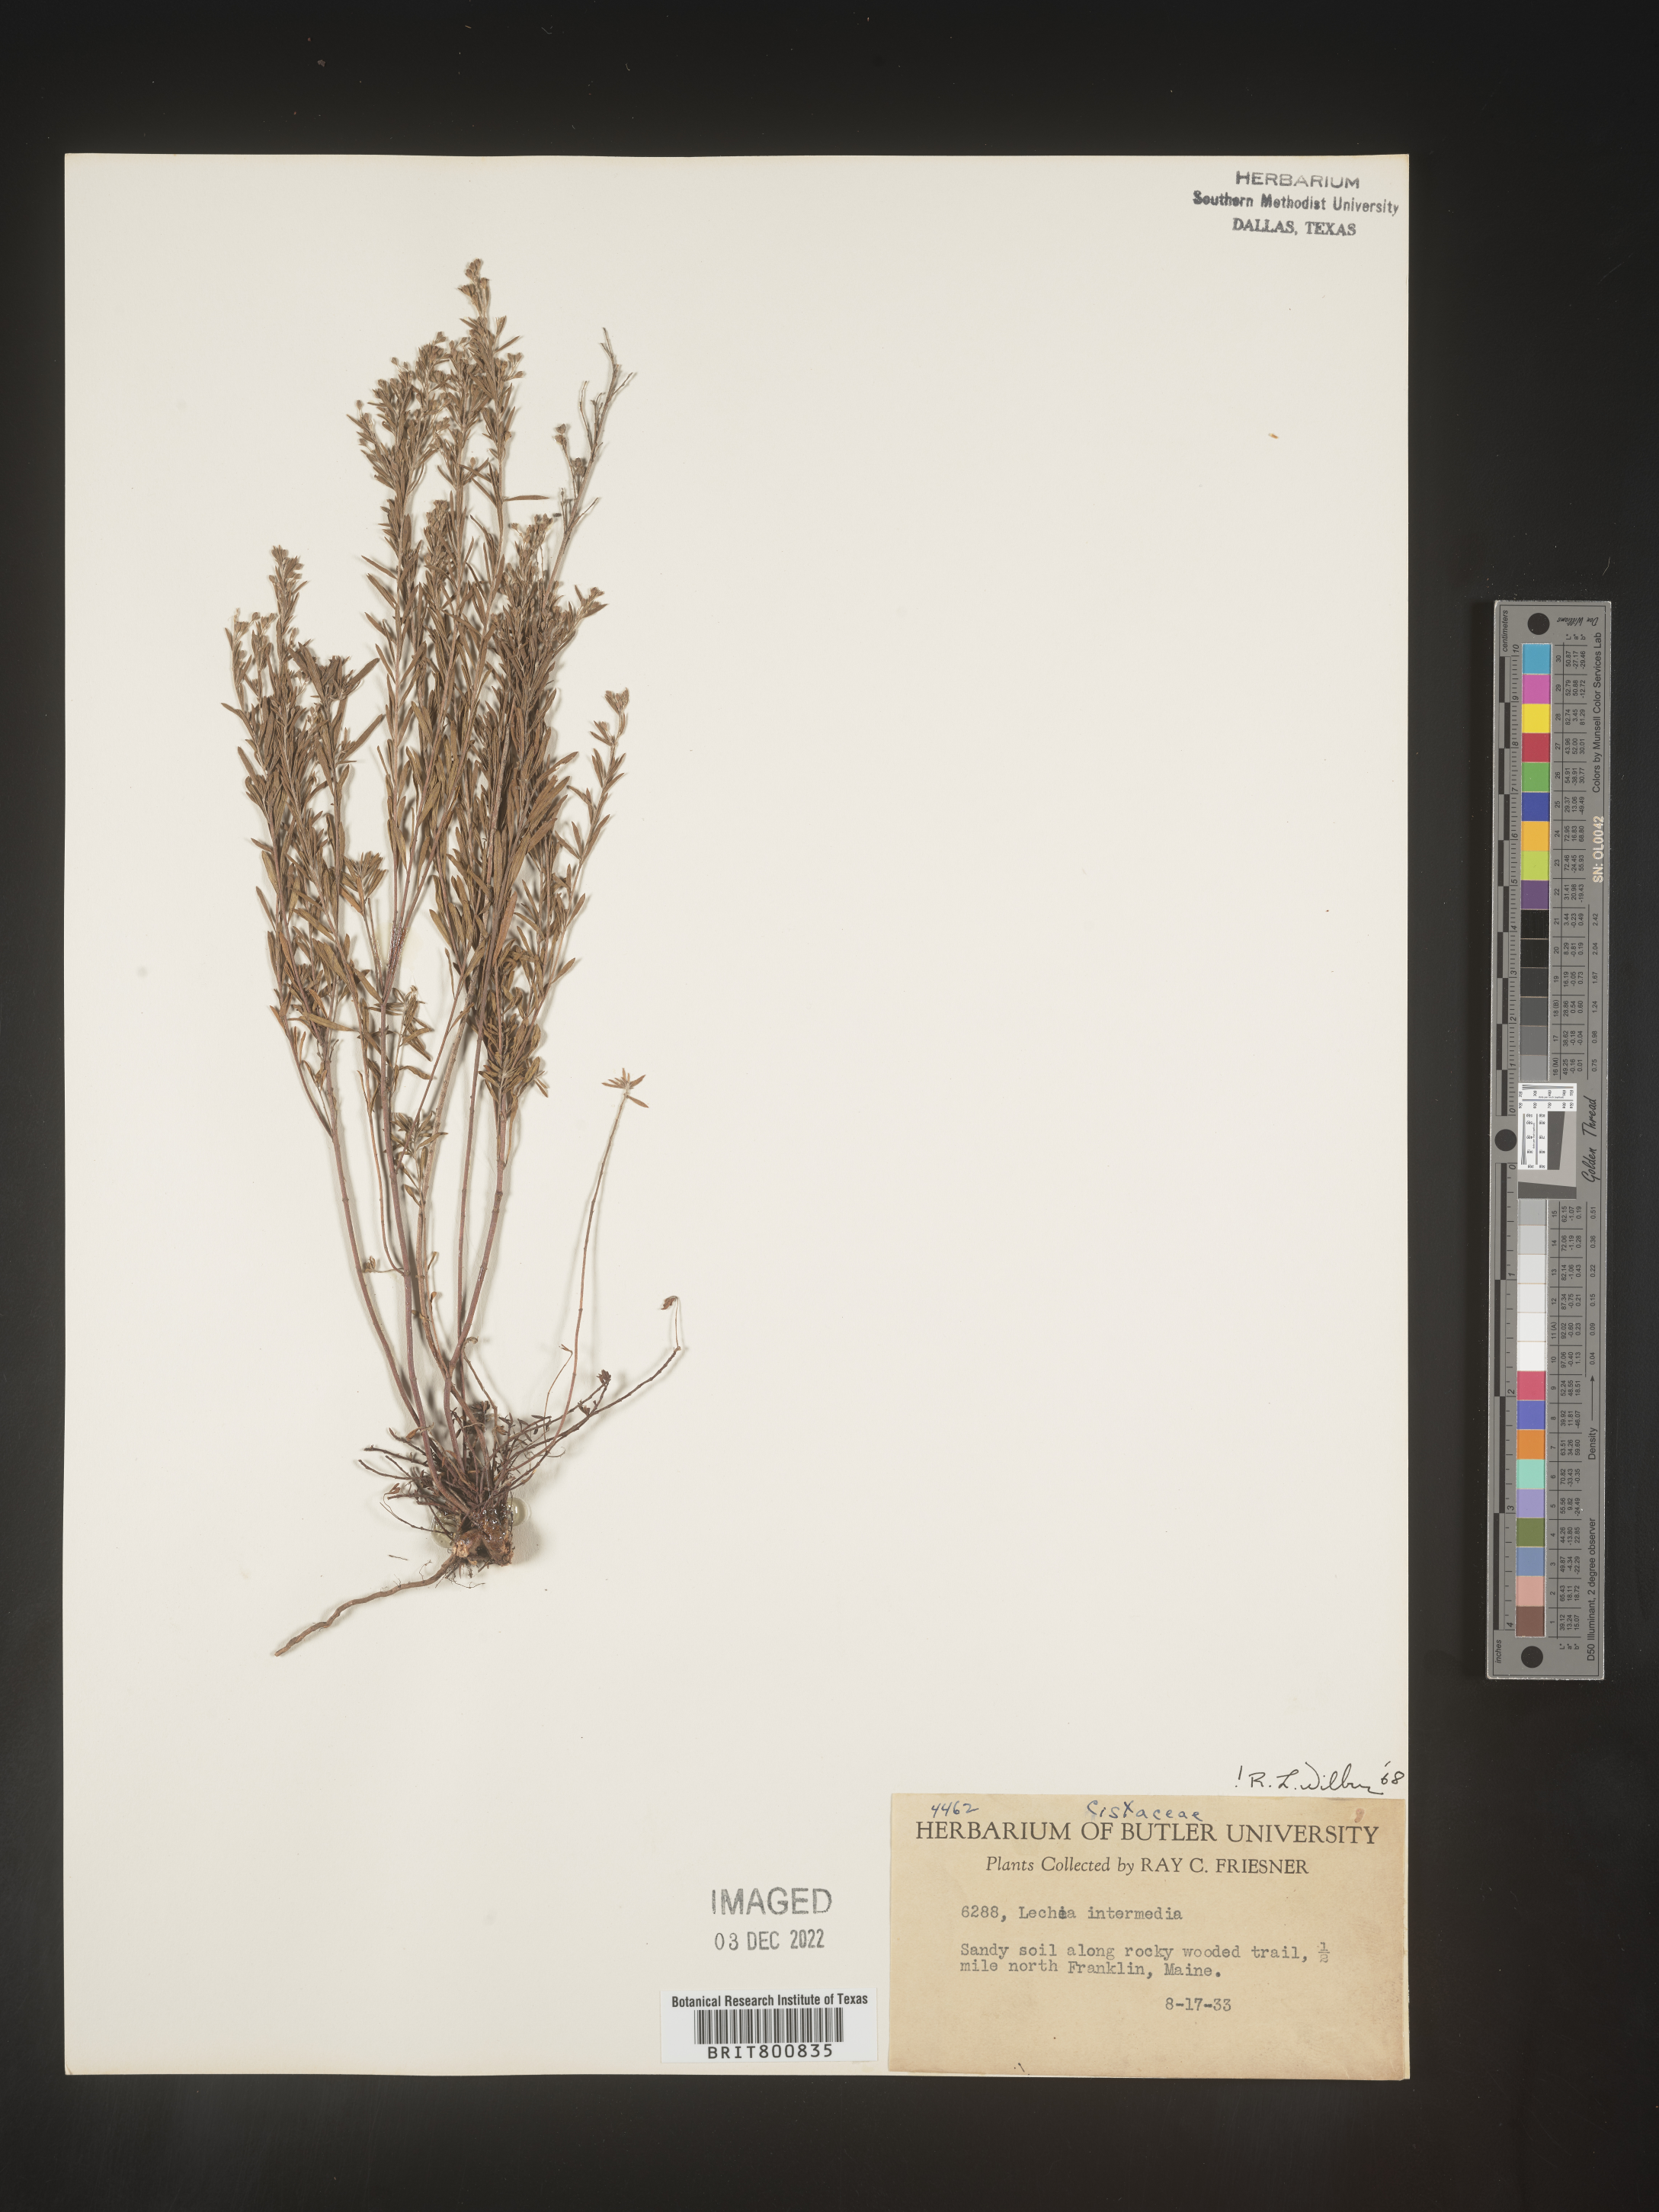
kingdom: Plantae
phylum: Tracheophyta
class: Magnoliopsida
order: Malvales
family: Cistaceae
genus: Lechea
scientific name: Lechea intermedia
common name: Intermediate pinweed
